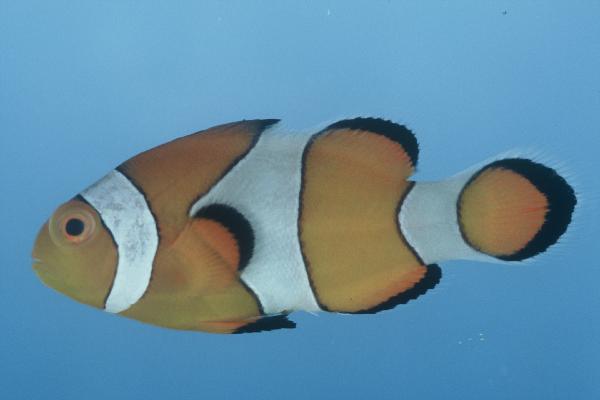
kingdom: Animalia
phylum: Chordata
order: Perciformes
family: Pomacentridae
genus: Amphiprion
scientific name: Amphiprion ocellaris
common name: Clown anemonefish
